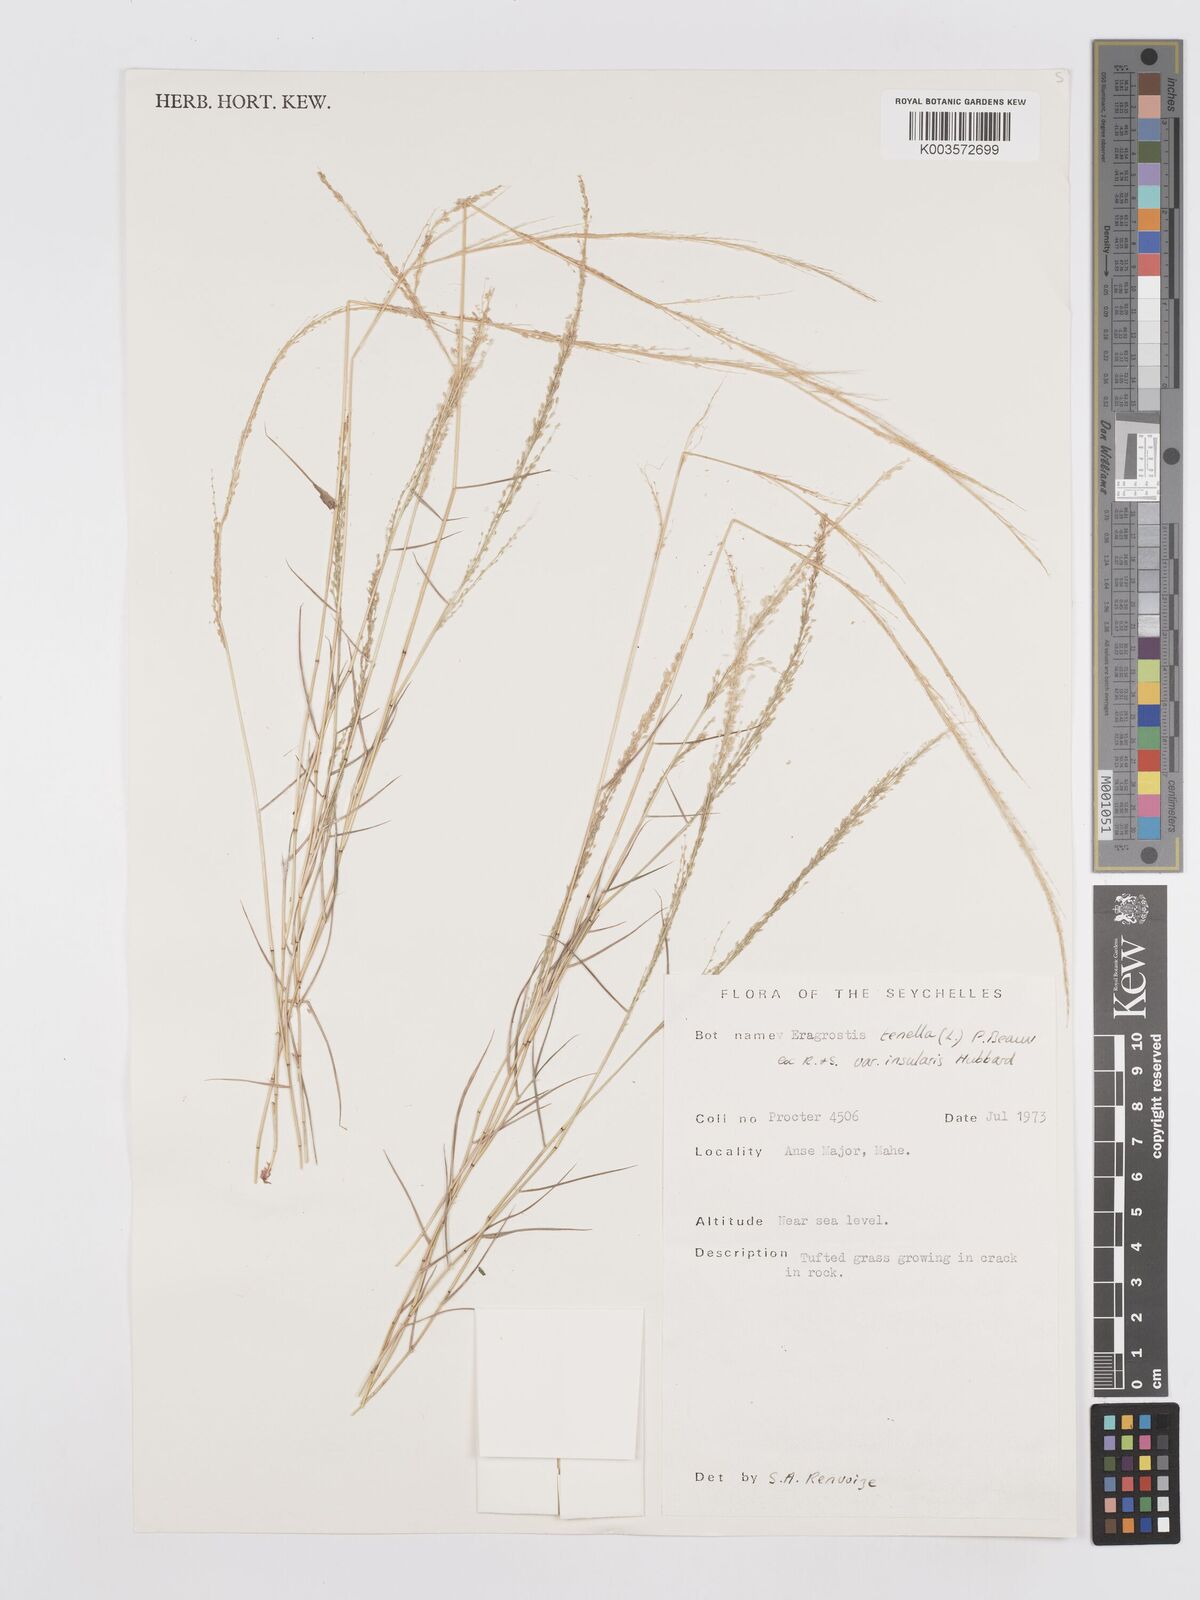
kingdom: Plantae
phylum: Tracheophyta
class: Liliopsida
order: Poales
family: Poaceae
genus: Eragrostis
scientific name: Eragrostis tenella
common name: Japanese lovegrass
